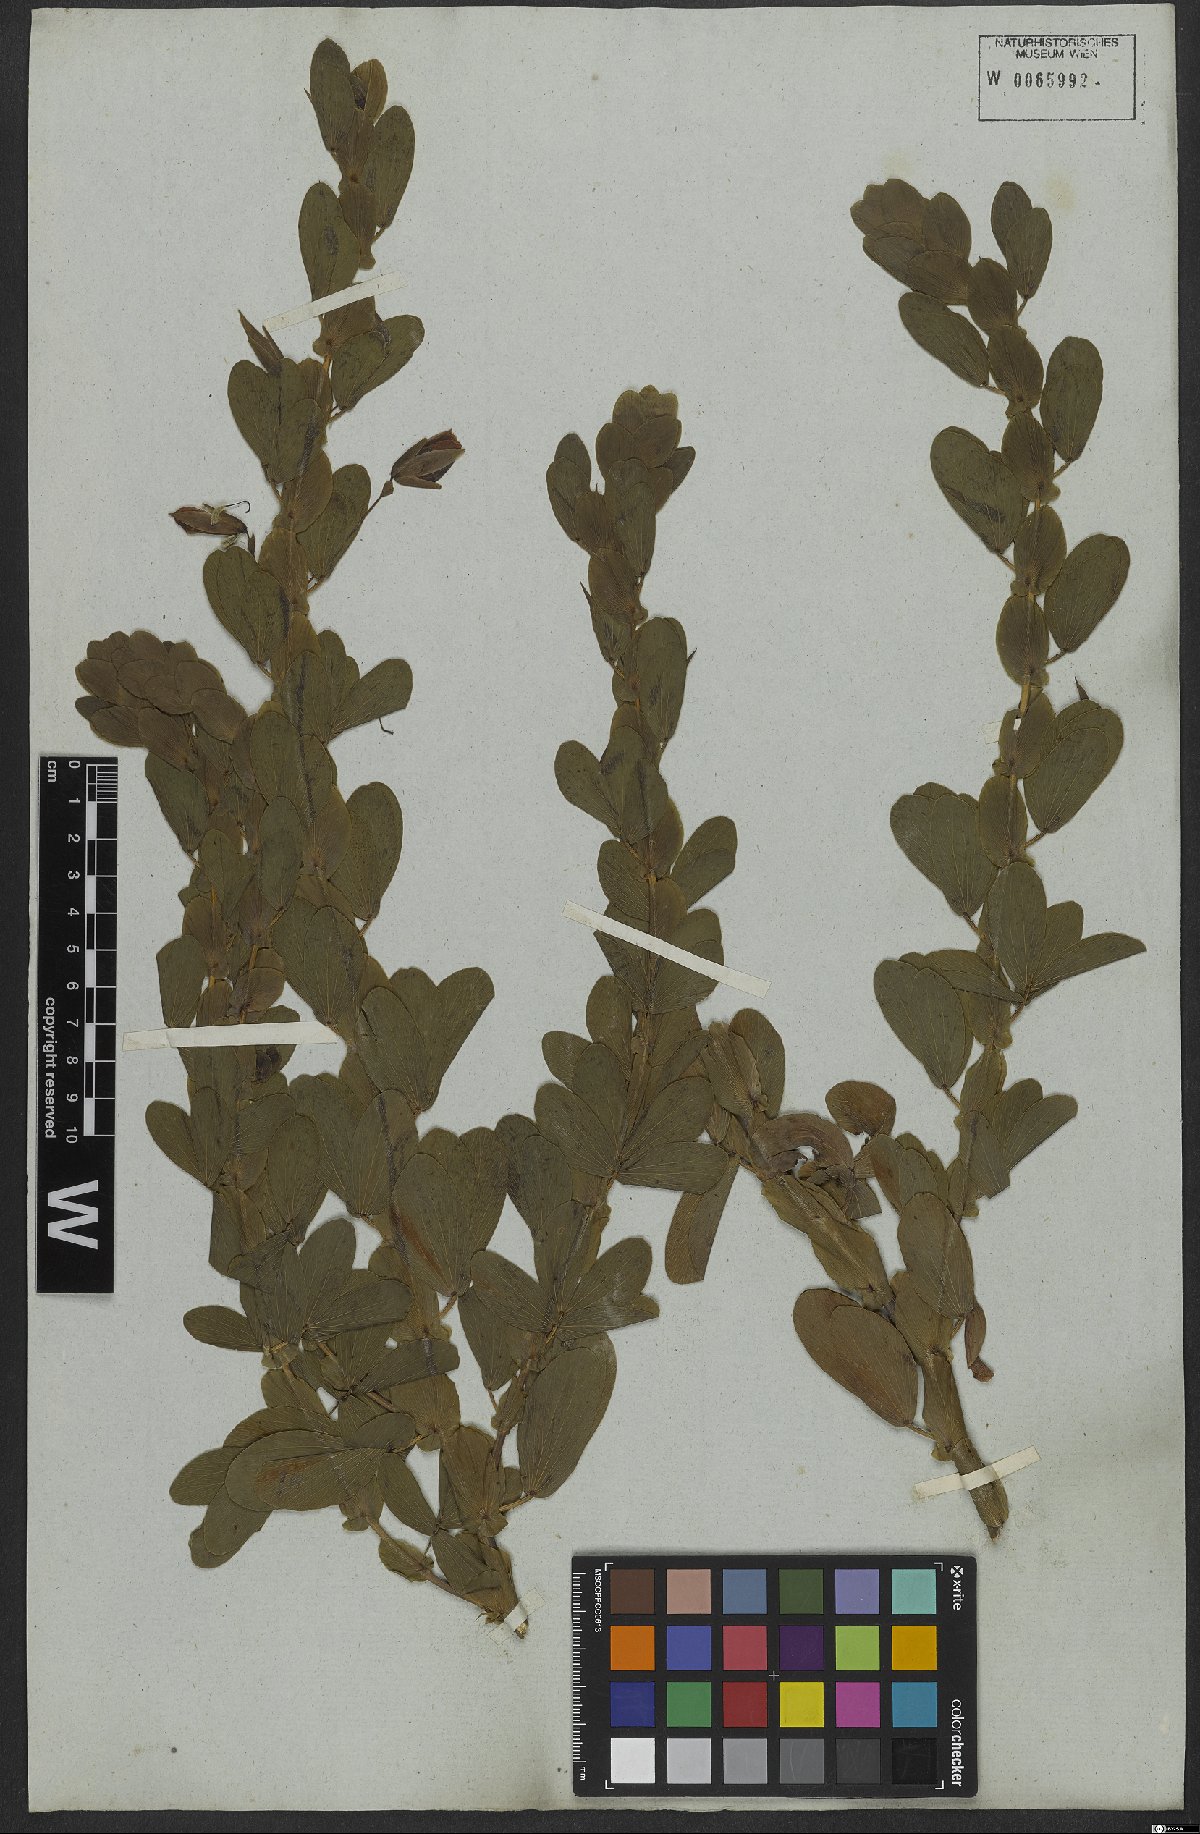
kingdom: Plantae
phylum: Tracheophyta
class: Magnoliopsida
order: Fabales
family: Fabaceae
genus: Chamaecrista
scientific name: Chamaecrista diphylla
